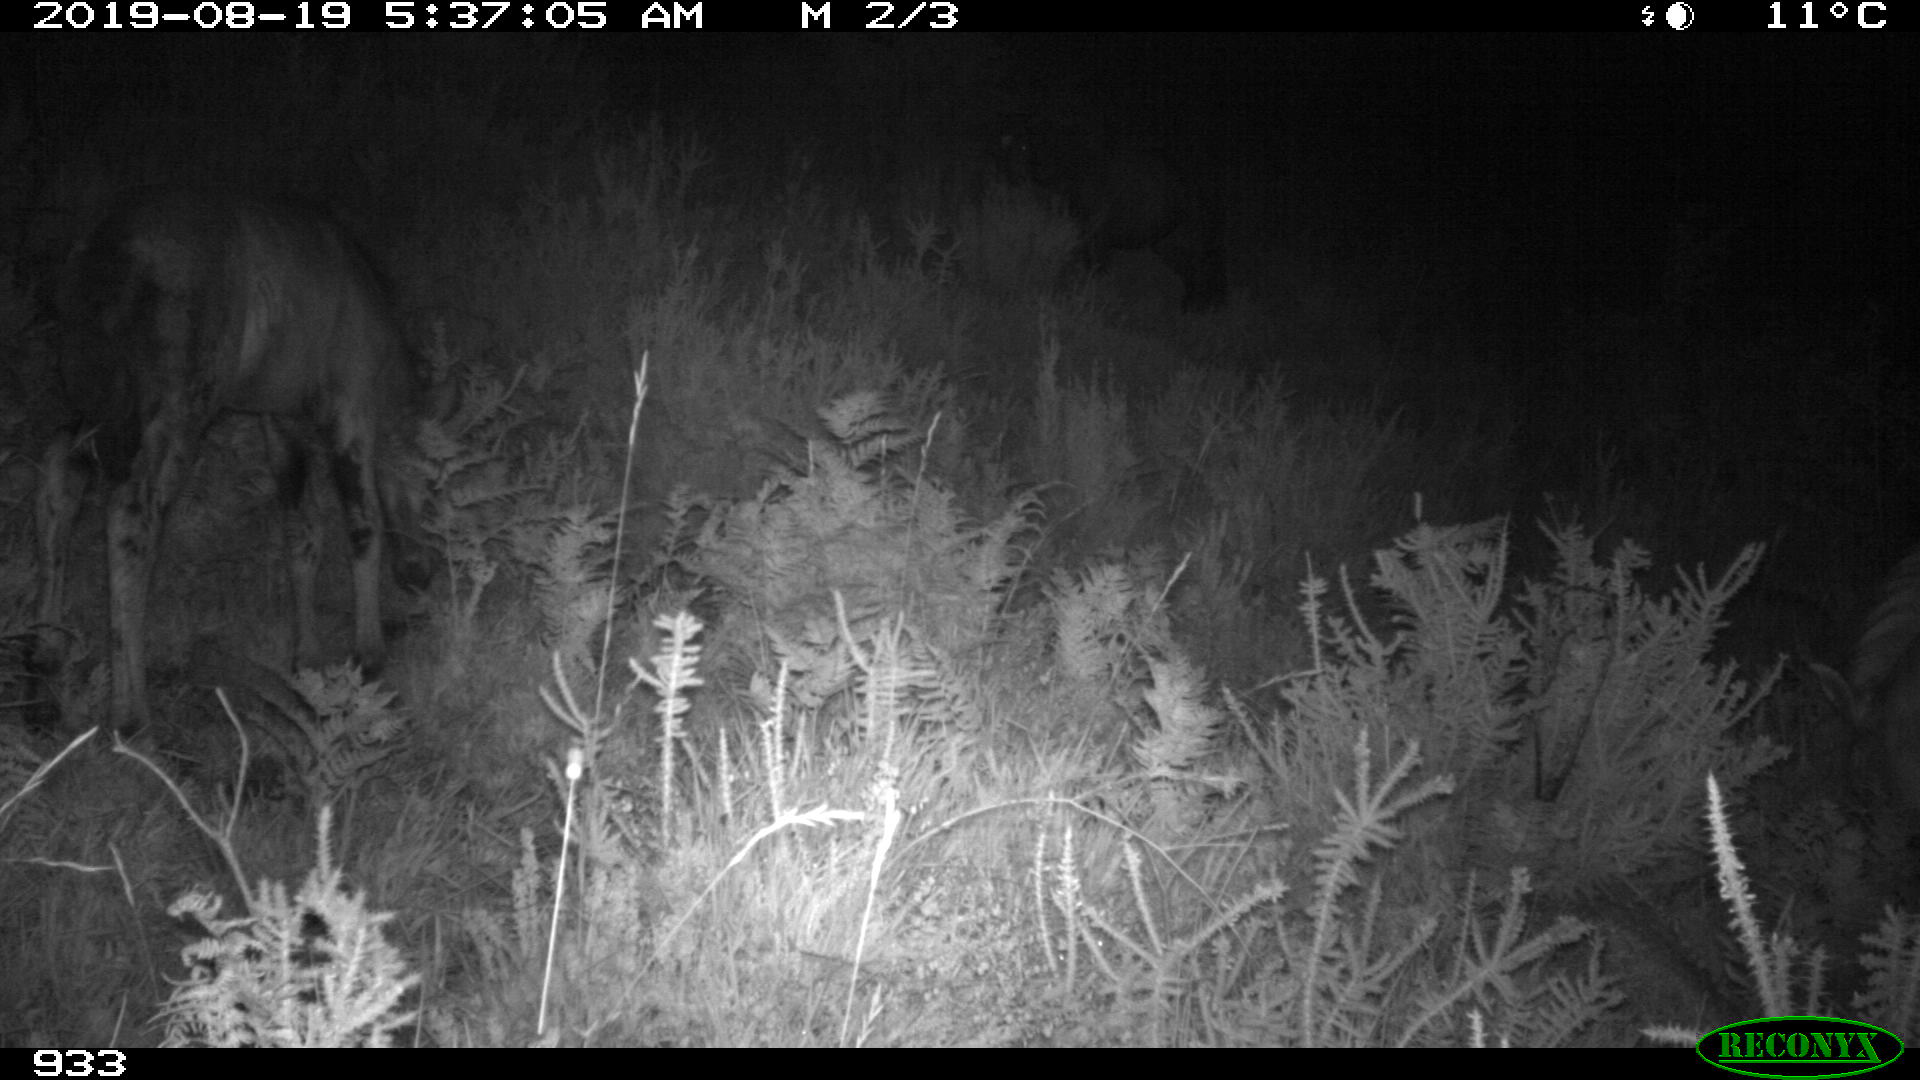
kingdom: Animalia
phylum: Chordata
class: Mammalia
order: Perissodactyla
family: Equidae
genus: Equus
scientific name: Equus caballus
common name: Horse
